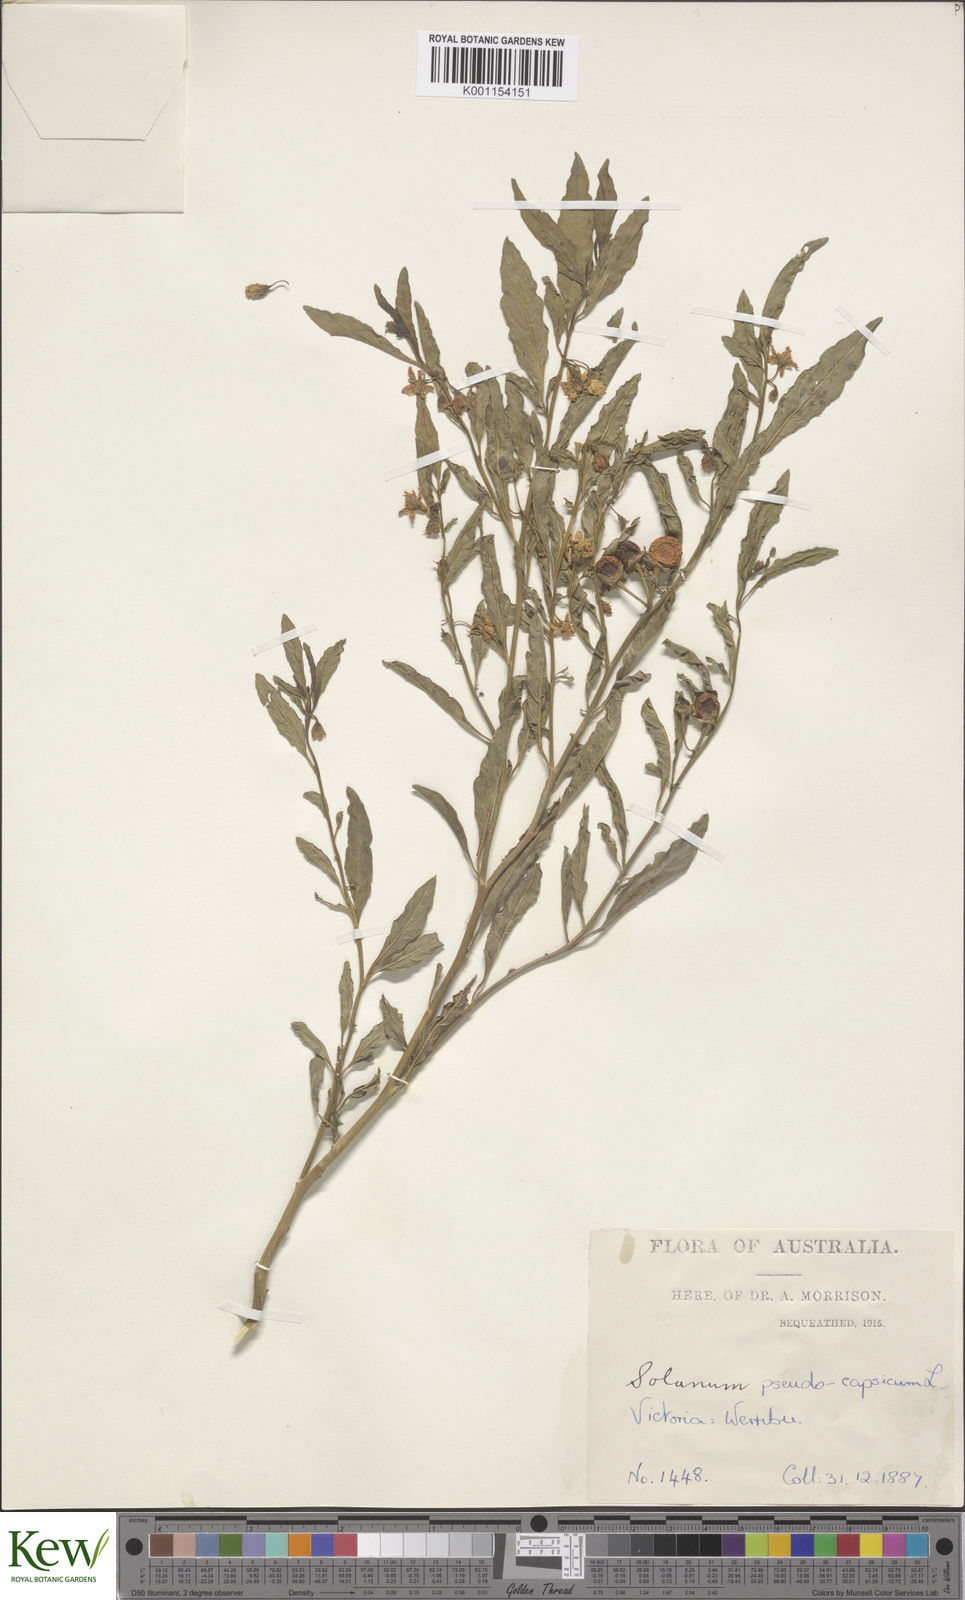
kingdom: Plantae
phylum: Tracheophyta
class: Magnoliopsida
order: Solanales
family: Solanaceae
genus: Solanum
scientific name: Solanum pseudocapsicum
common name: Jerusalem cherry
